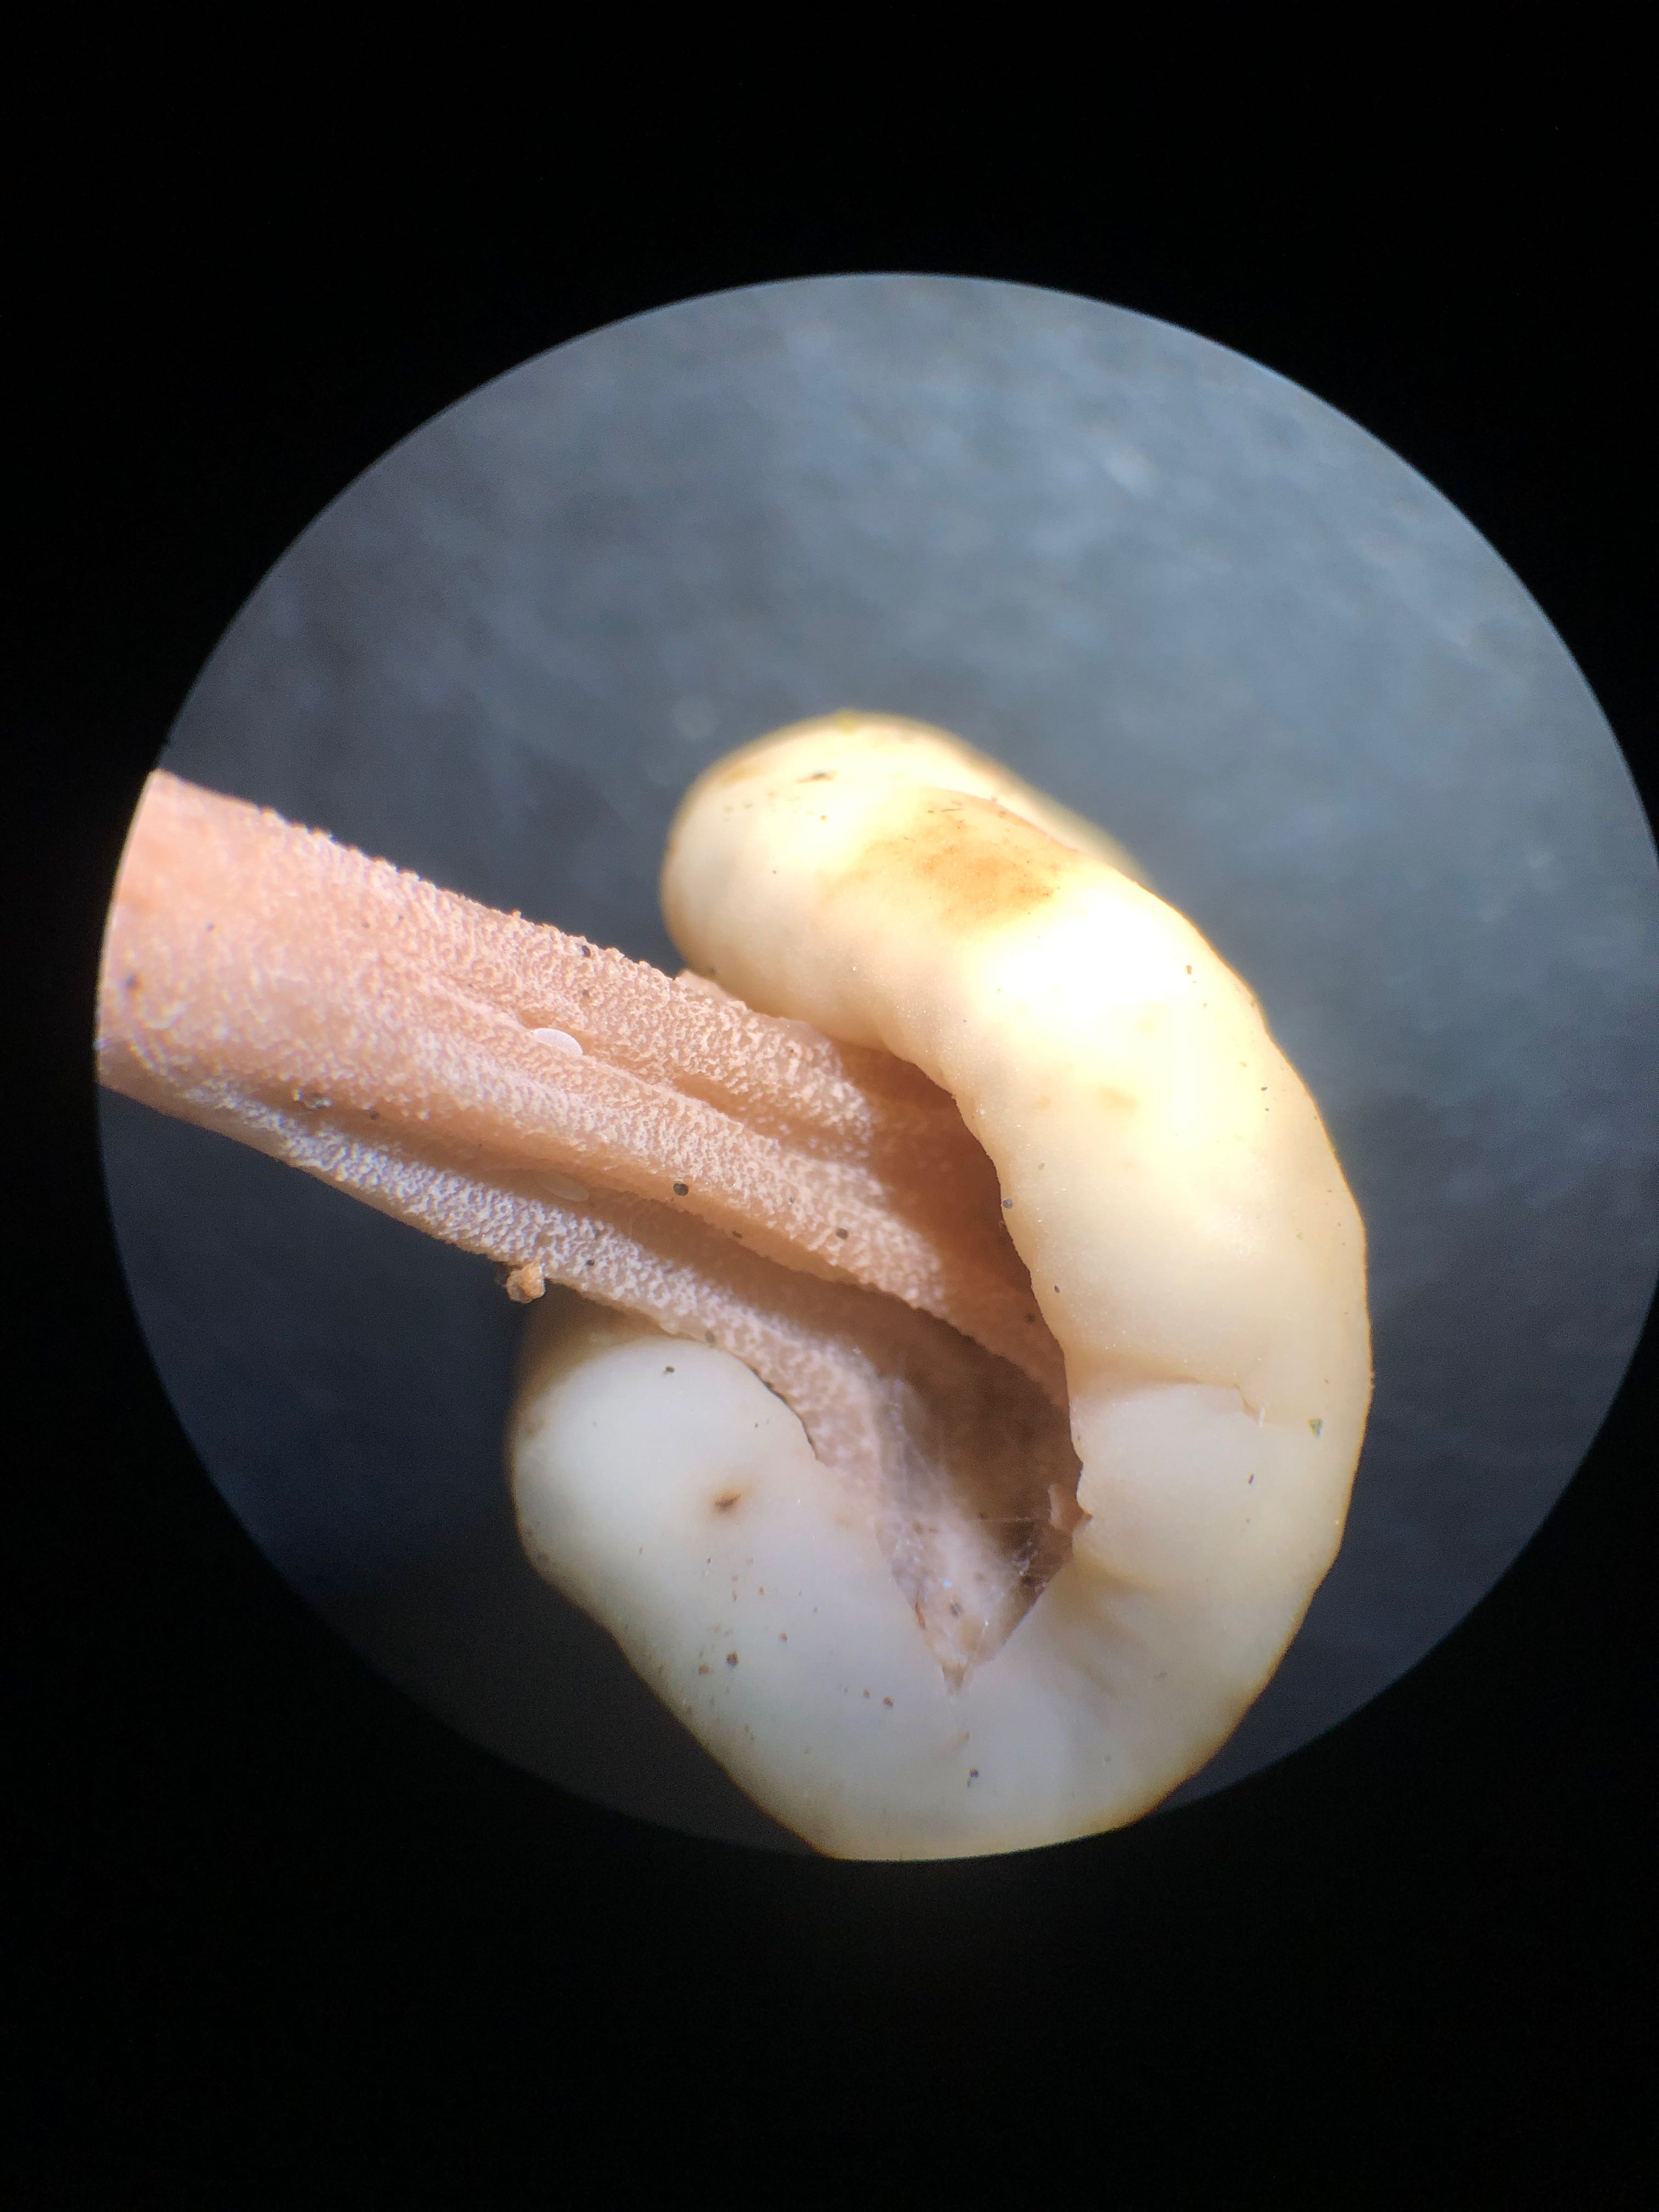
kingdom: Fungi
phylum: Ascomycota
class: Leotiomycetes
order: Rhytismatales
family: Cudoniaceae
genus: Cudonia
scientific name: Cudonia circinans
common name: hekserings-hjelmmorkel
